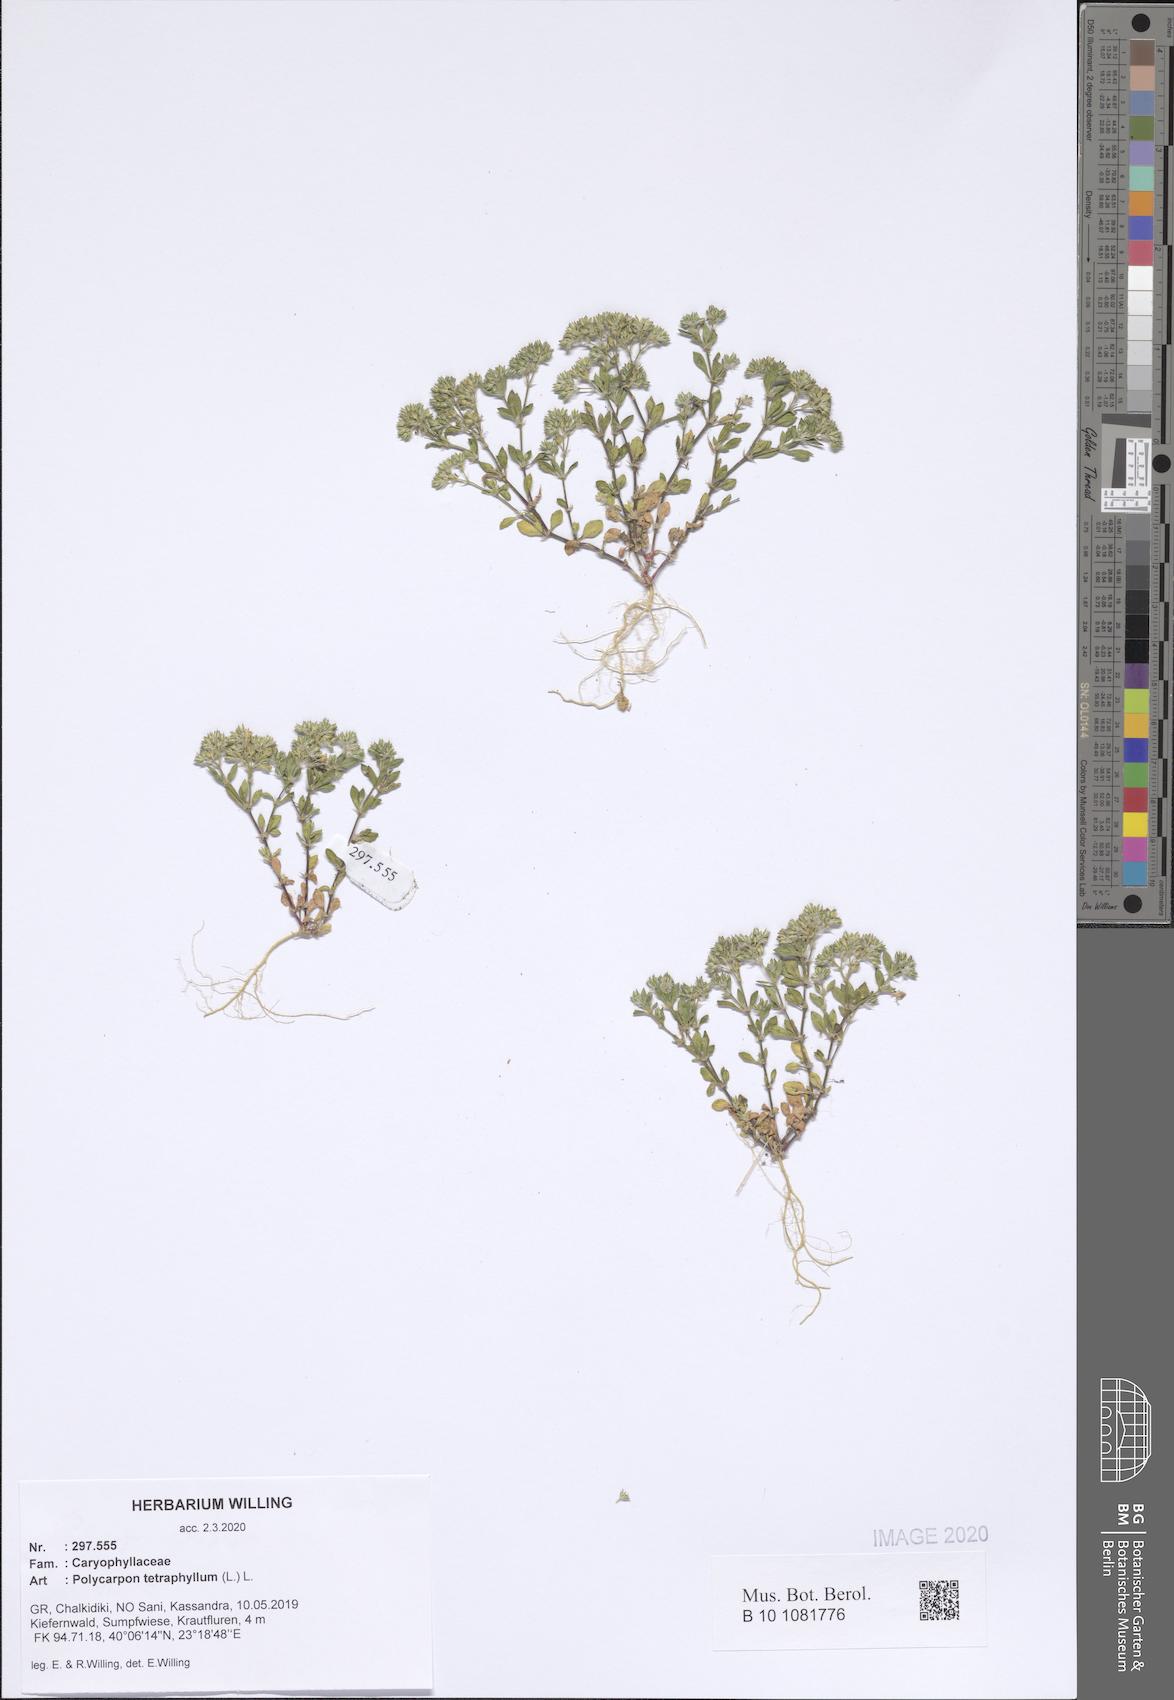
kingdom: Plantae
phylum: Tracheophyta
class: Magnoliopsida
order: Caryophyllales
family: Caryophyllaceae
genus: Polycarpon
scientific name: Polycarpon tetraphyllum
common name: Four-leaved all-seed
